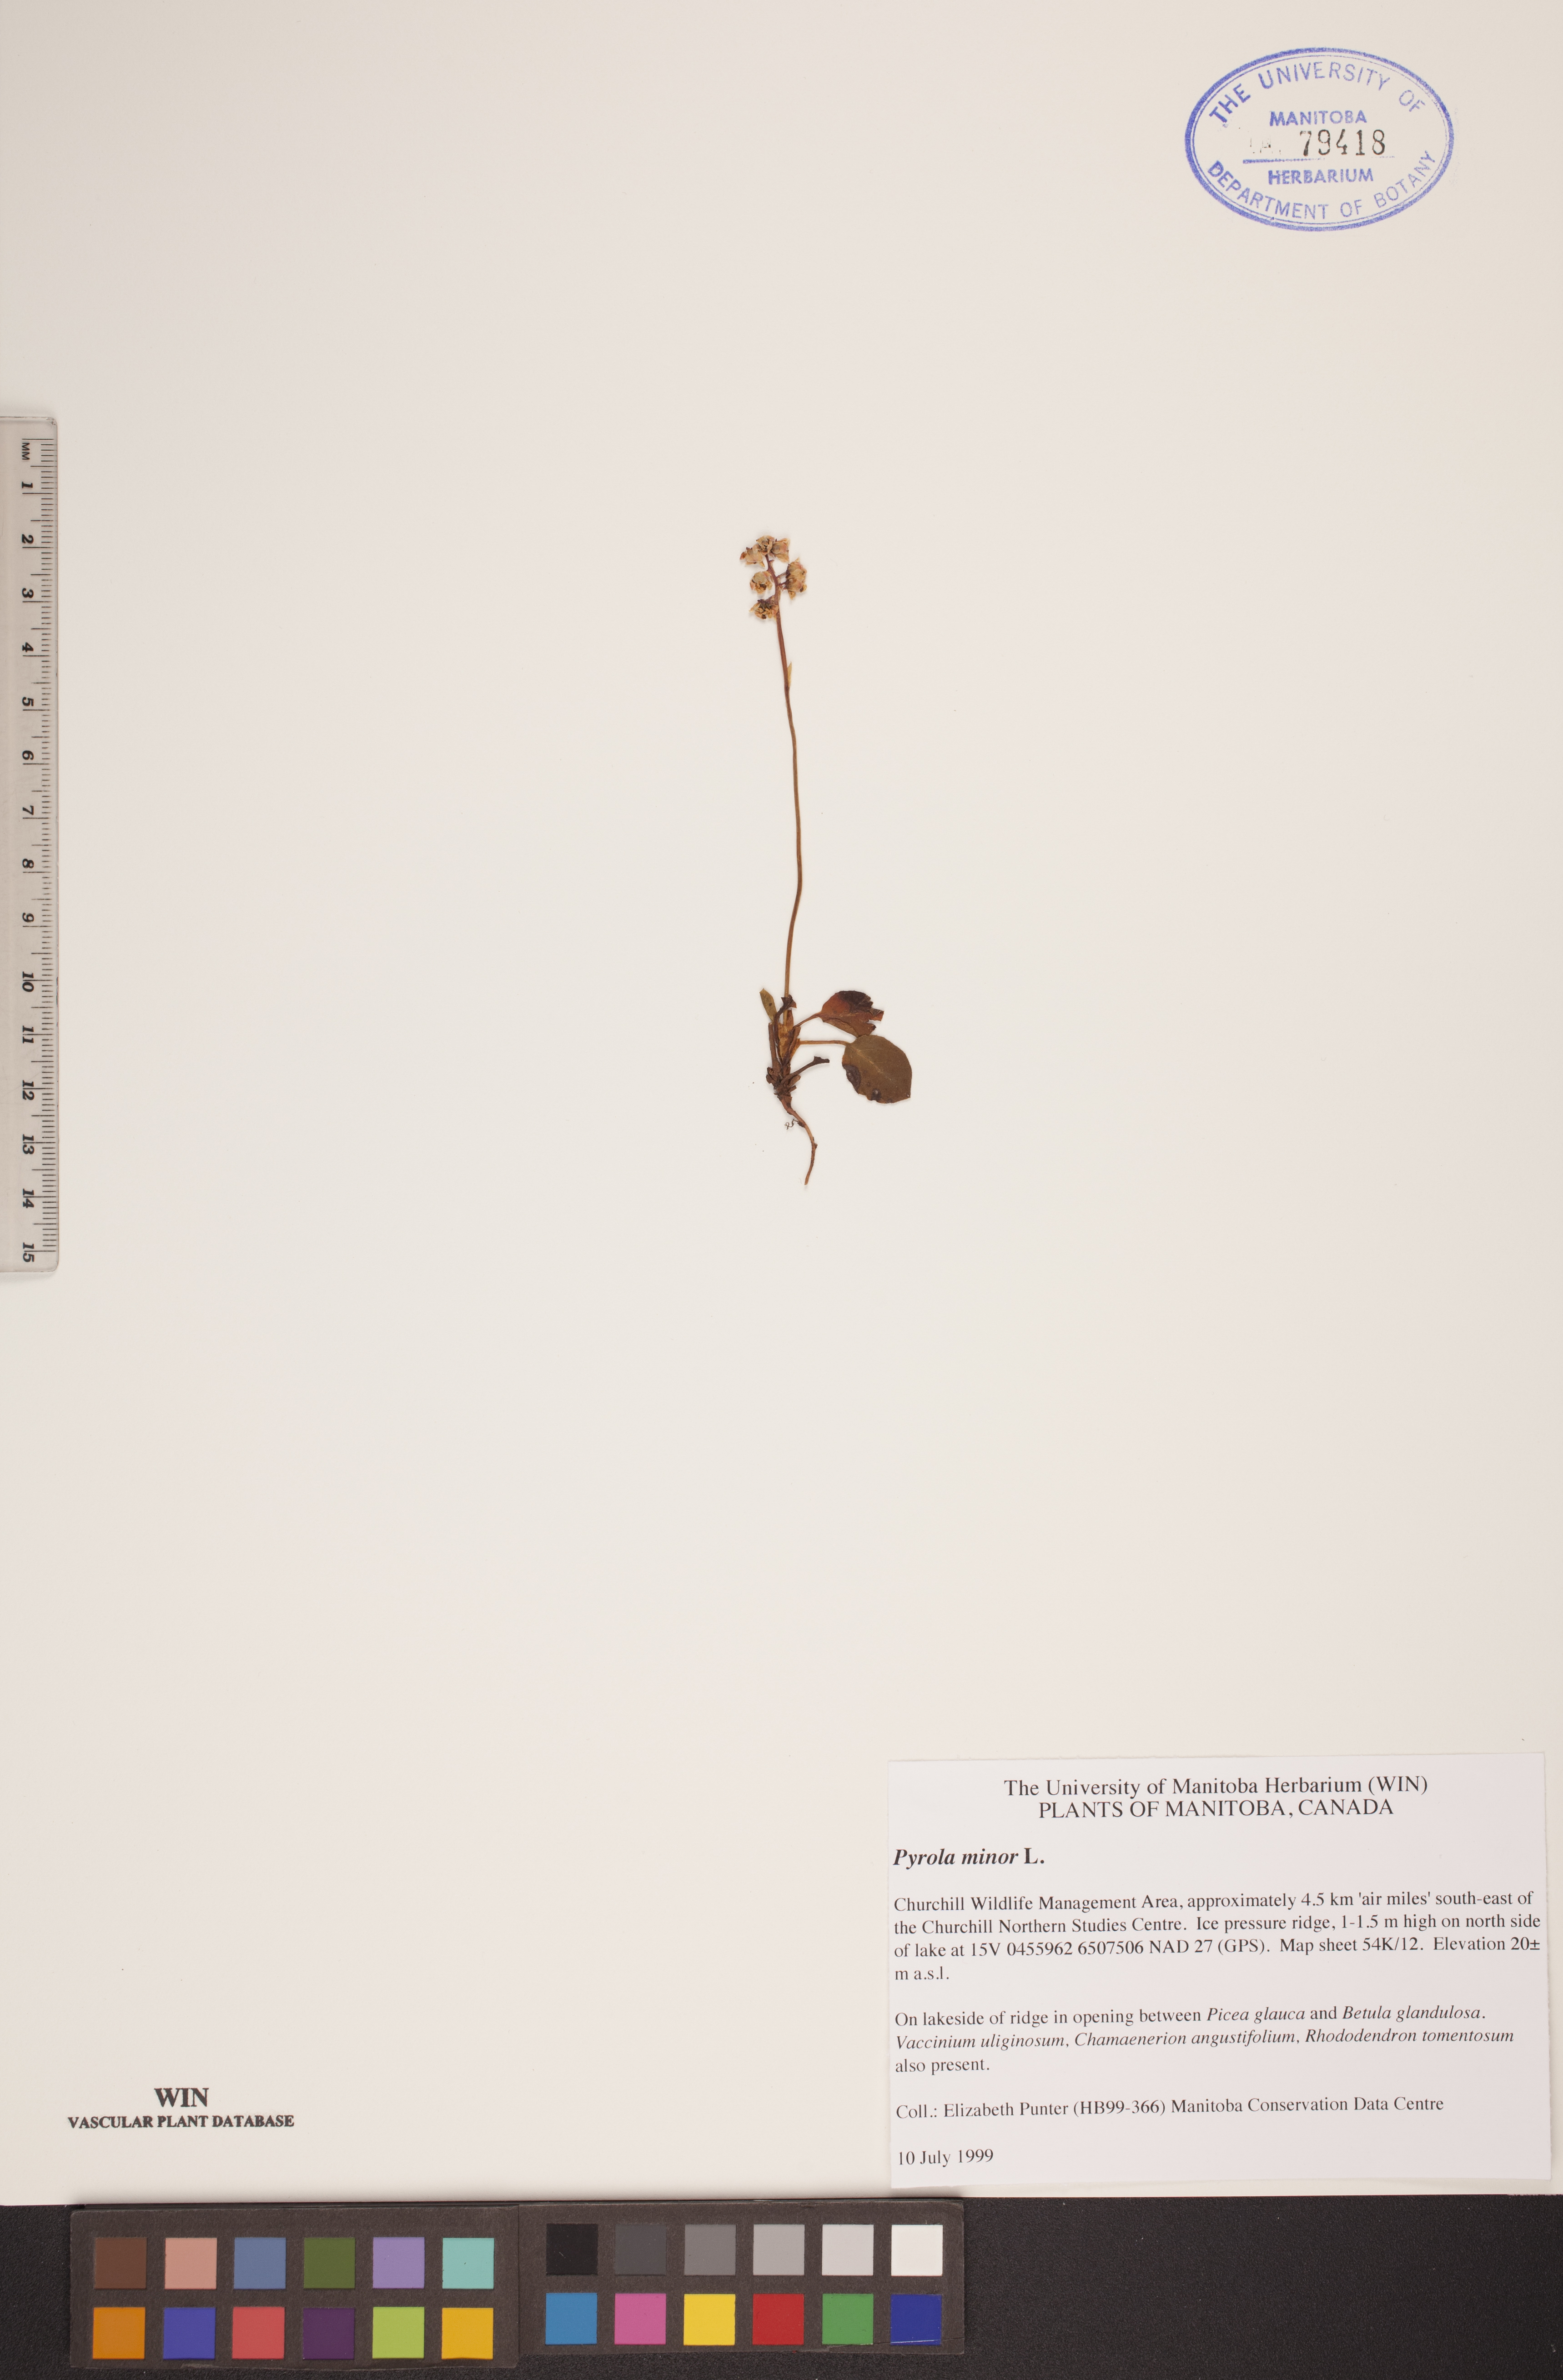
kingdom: Plantae
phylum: Tracheophyta
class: Magnoliopsida
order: Ericales
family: Ericaceae
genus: Pyrola
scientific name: Pyrola minor
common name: Common wintergreen
